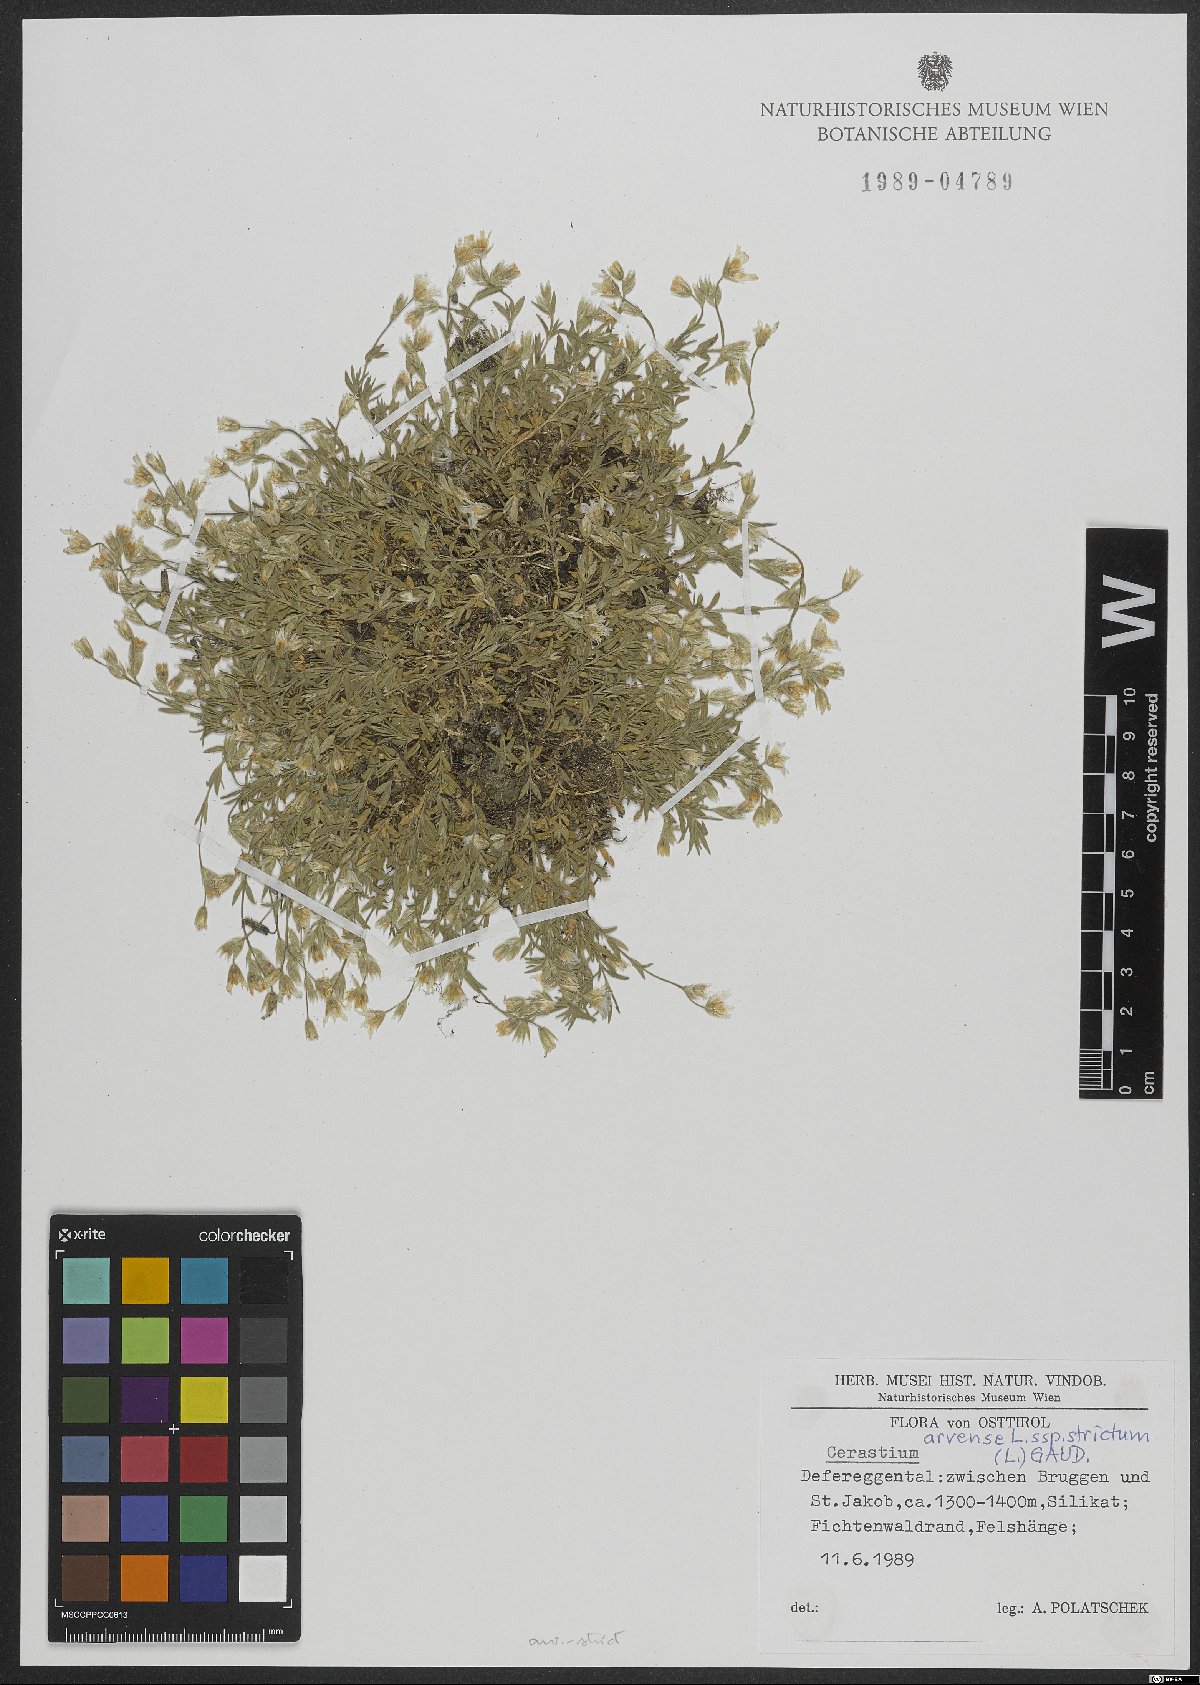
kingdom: Plantae
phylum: Tracheophyta
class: Magnoliopsida
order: Caryophyllales
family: Caryophyllaceae
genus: Cerastium
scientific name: Cerastium elongatum
